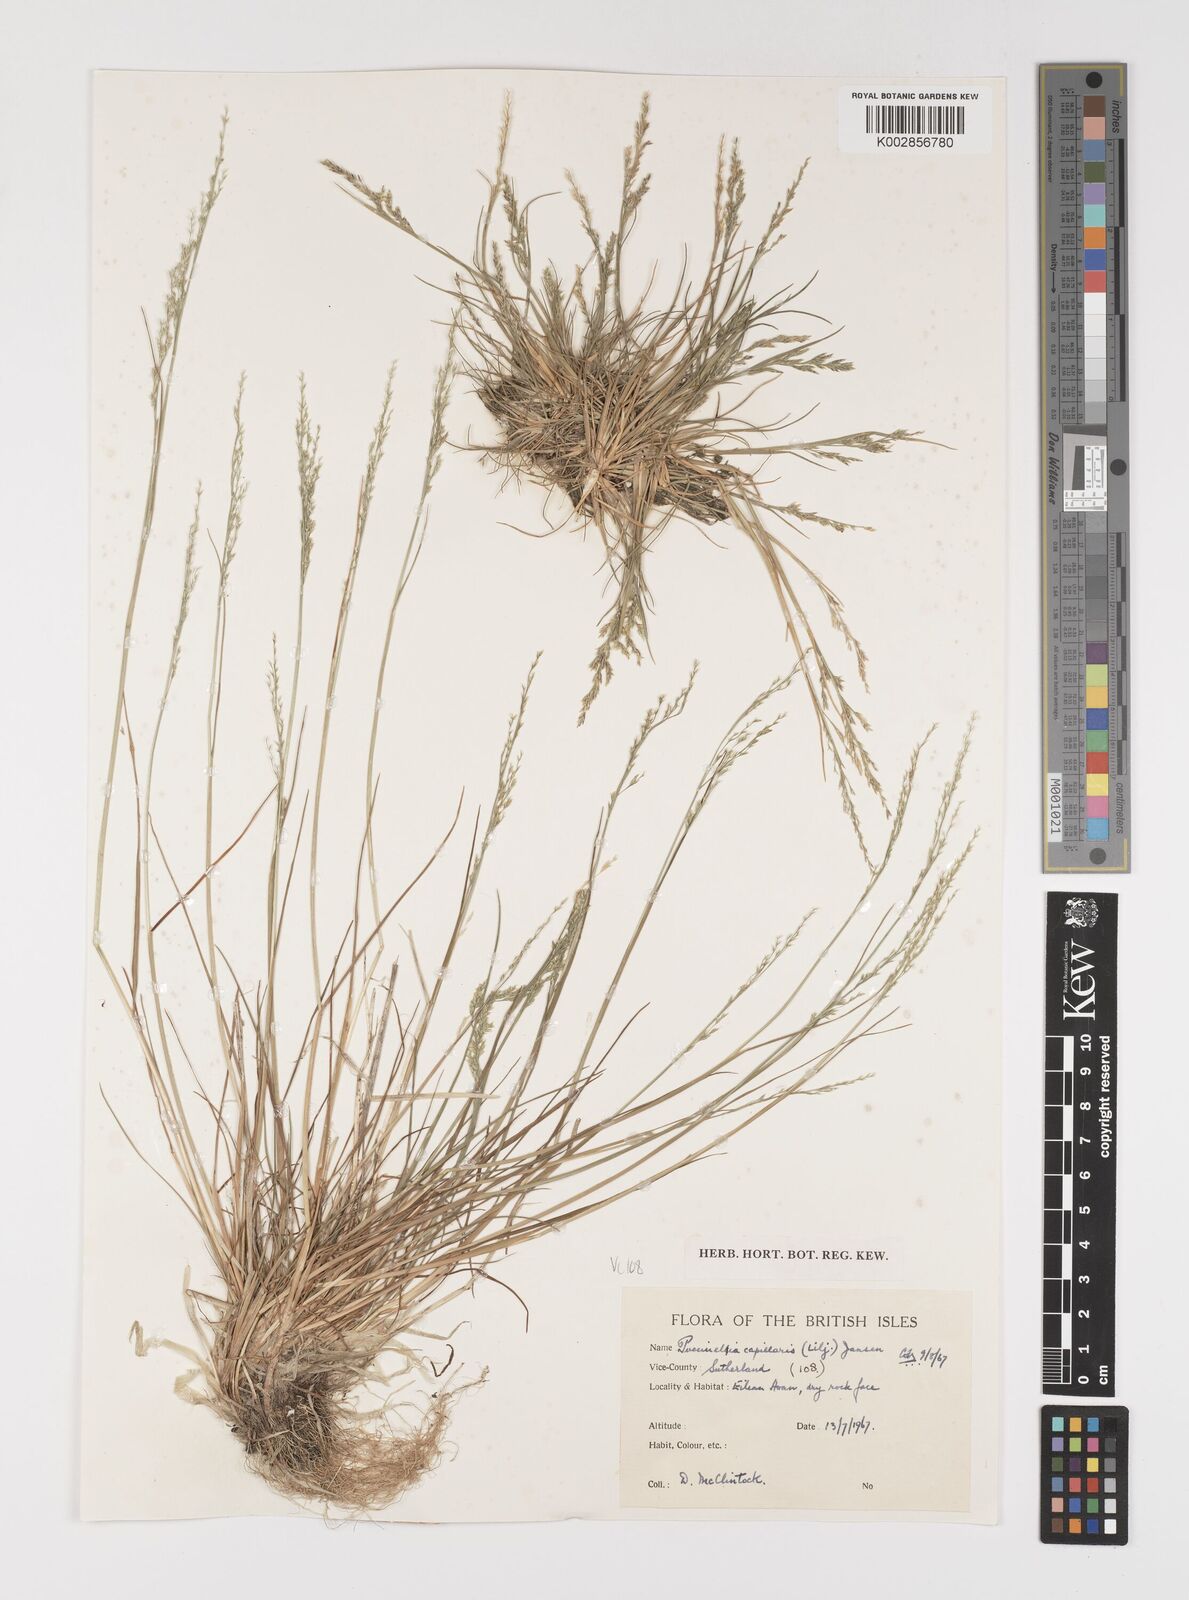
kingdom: Plantae
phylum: Tracheophyta
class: Liliopsida
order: Poales
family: Poaceae
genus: Puccinellia
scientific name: Puccinellia distans
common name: Weeping alkaligrass
